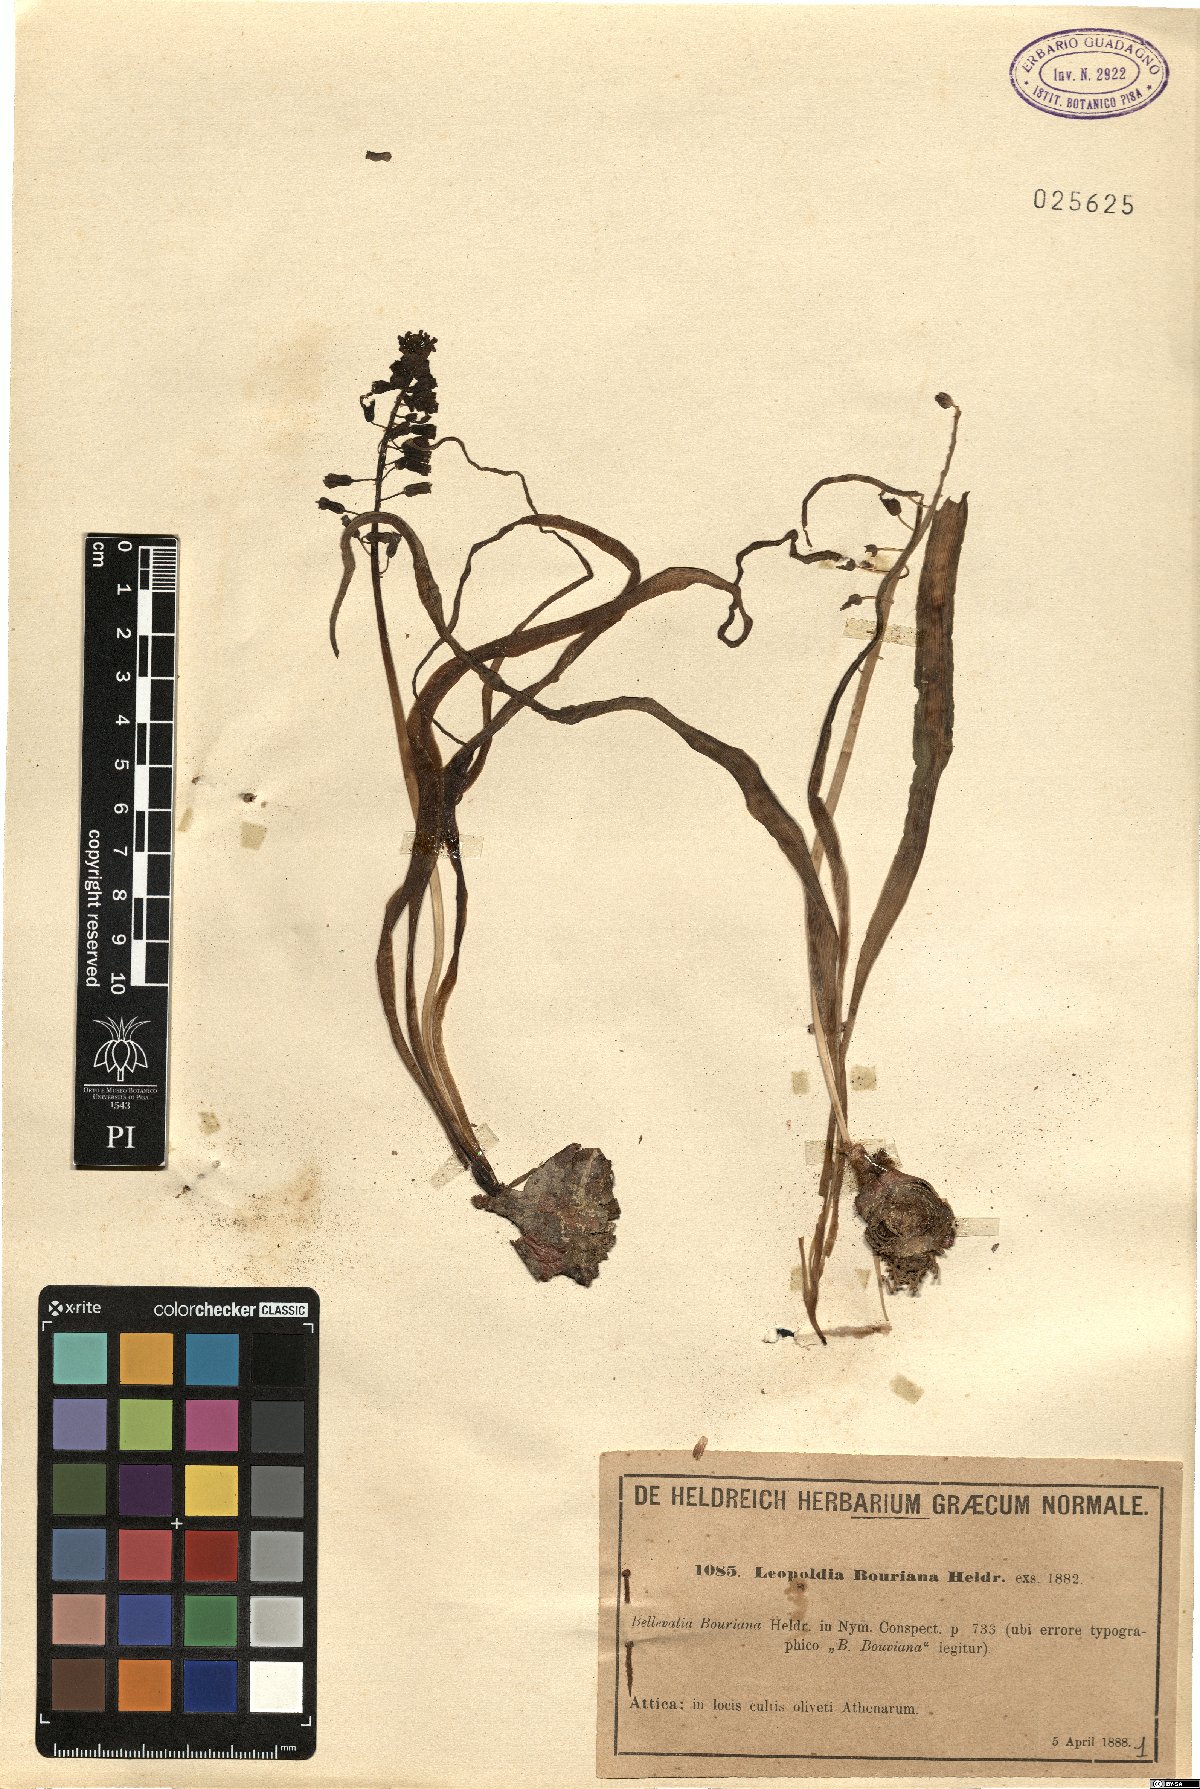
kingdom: Plantae
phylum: Tracheophyta
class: Liliopsida
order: Asparagales
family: Asparagaceae
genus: Muscari
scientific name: Muscari comosum
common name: Tassel hyacinth
